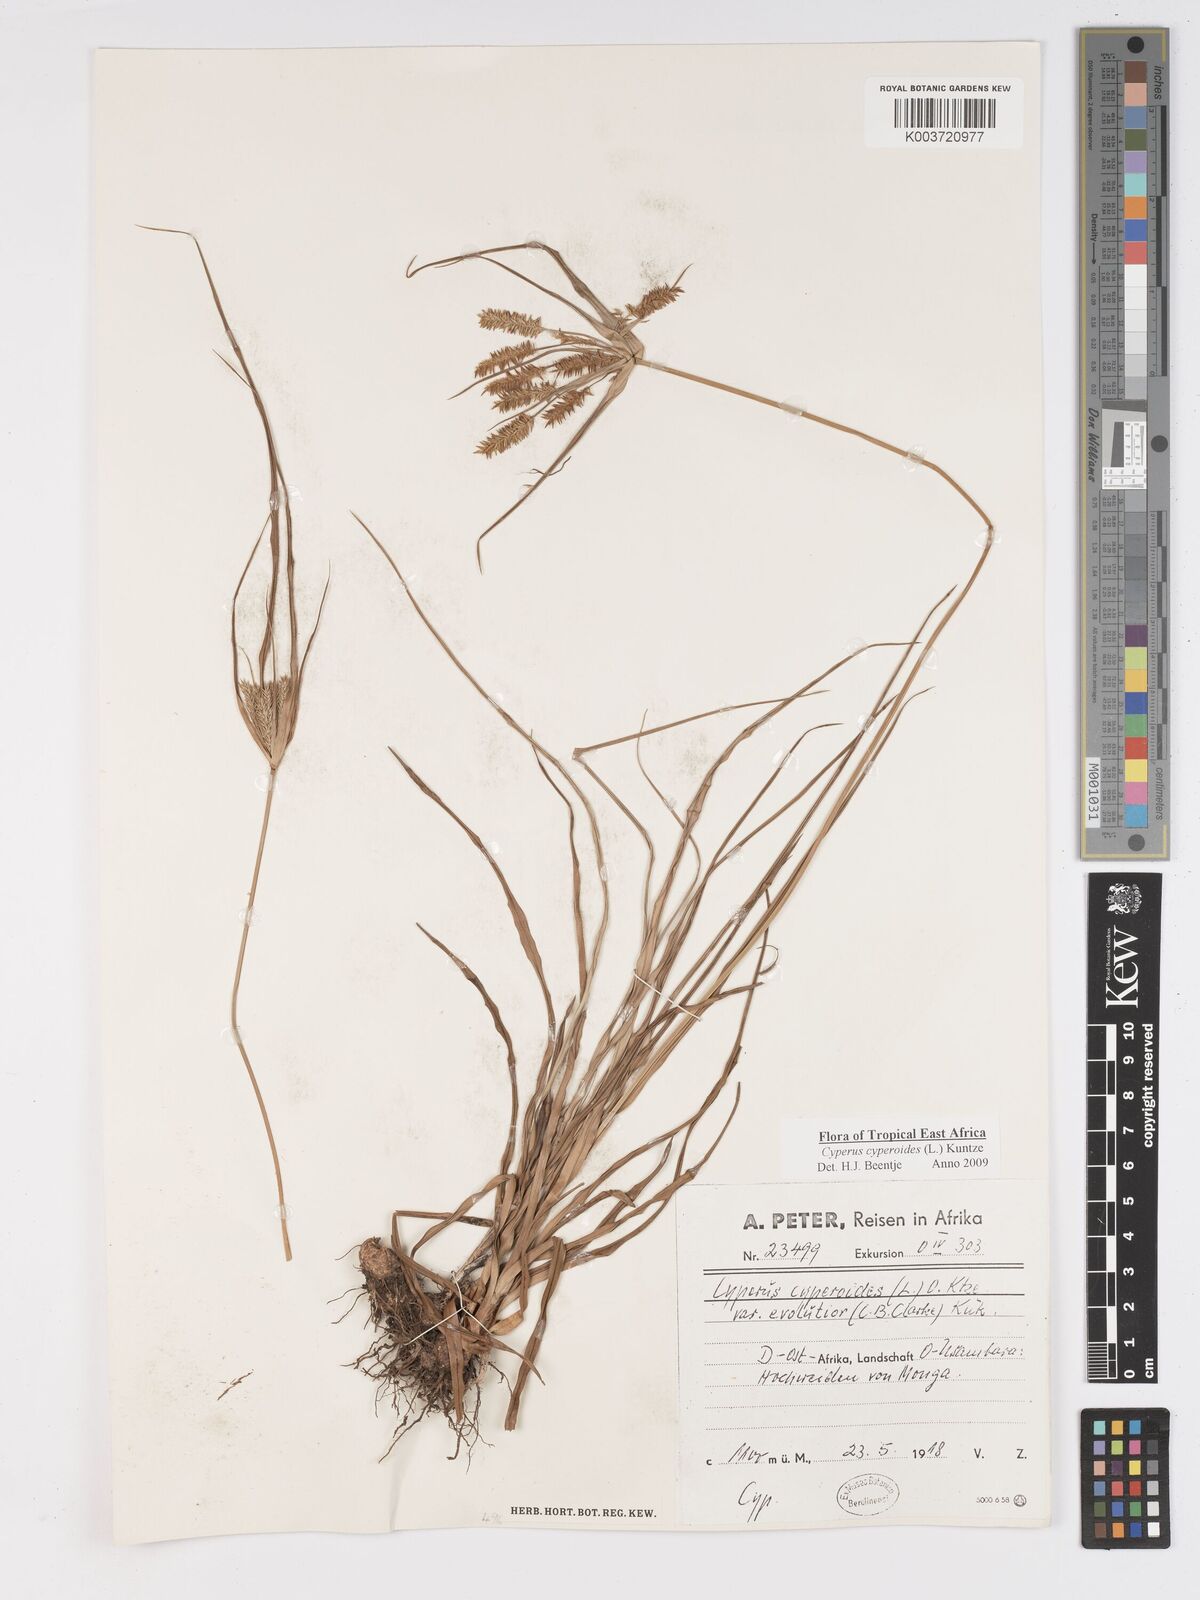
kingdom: Plantae
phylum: Tracheophyta
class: Liliopsida
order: Poales
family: Cyperaceae
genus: Cyperus
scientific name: Cyperus cyperoides
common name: Pacific island flat sedge
